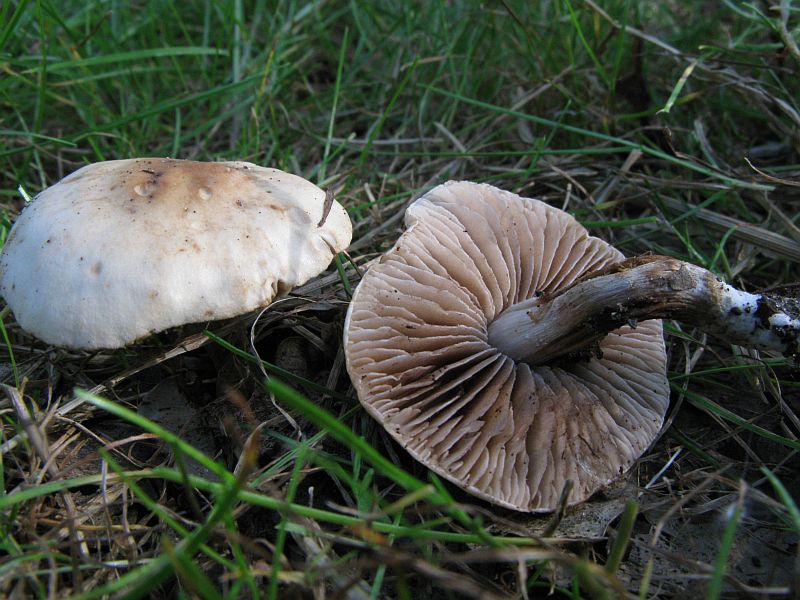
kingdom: Fungi
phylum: Basidiomycota
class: Agaricomycetes
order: Agaricales
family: Hymenogastraceae
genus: Hebeloma
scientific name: Hebeloma sacchariolens
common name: sødtduftende tåreblad
